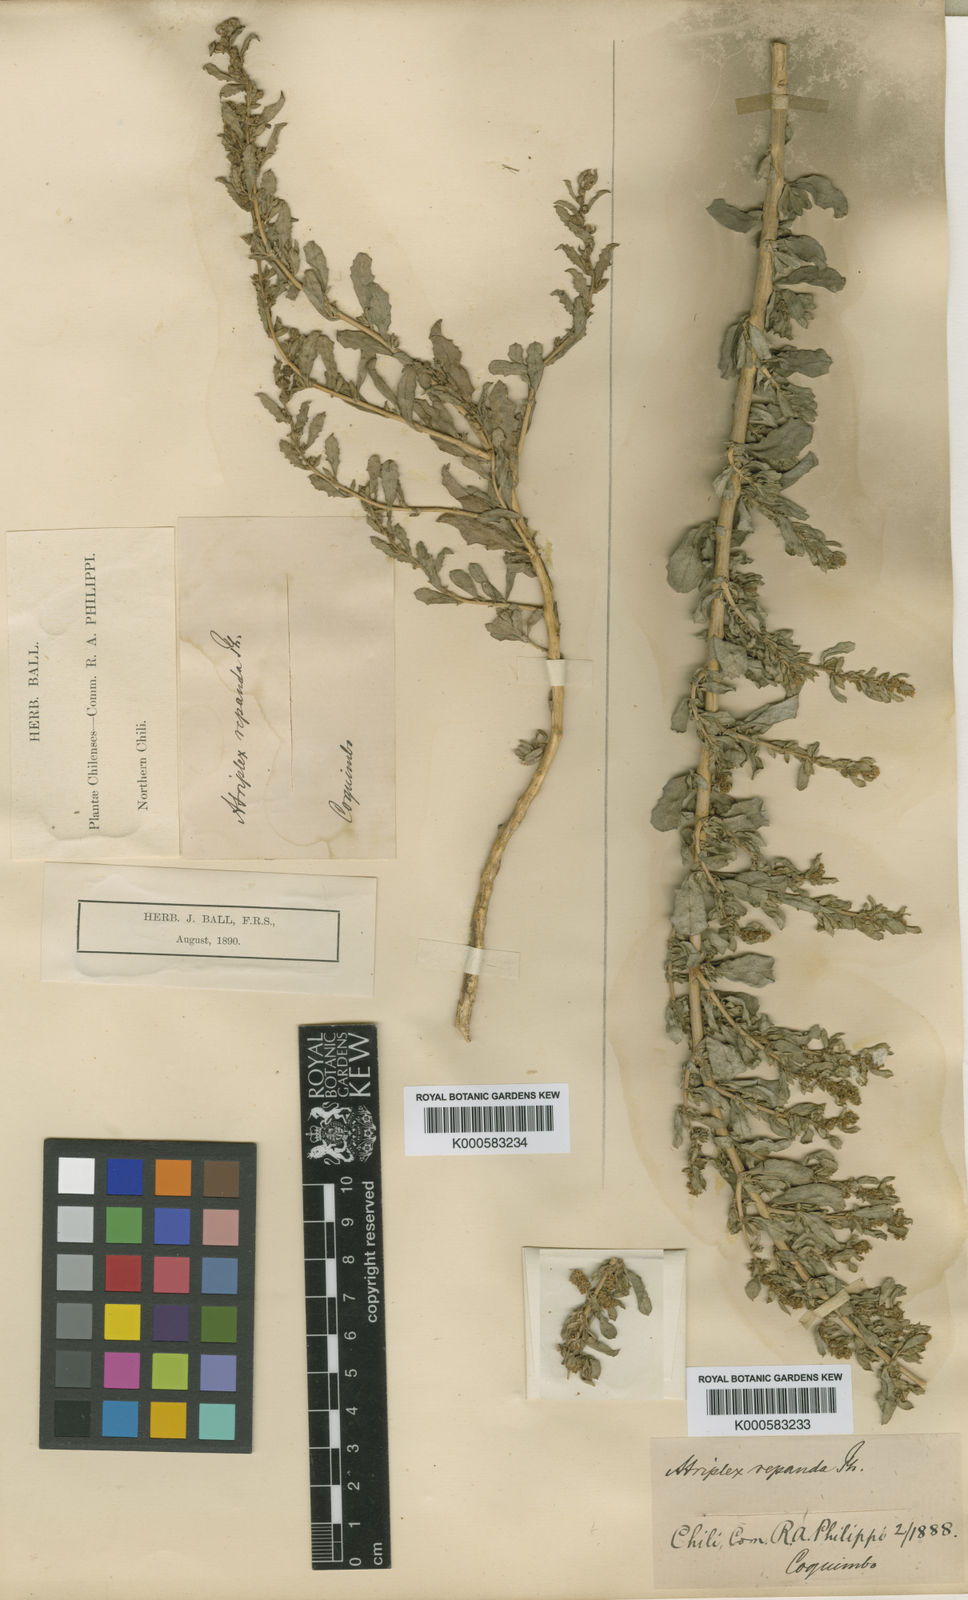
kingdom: Plantae
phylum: Tracheophyta
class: Magnoliopsida
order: Caryophyllales
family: Amaranthaceae
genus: Atriplex
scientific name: Atriplex repanda
